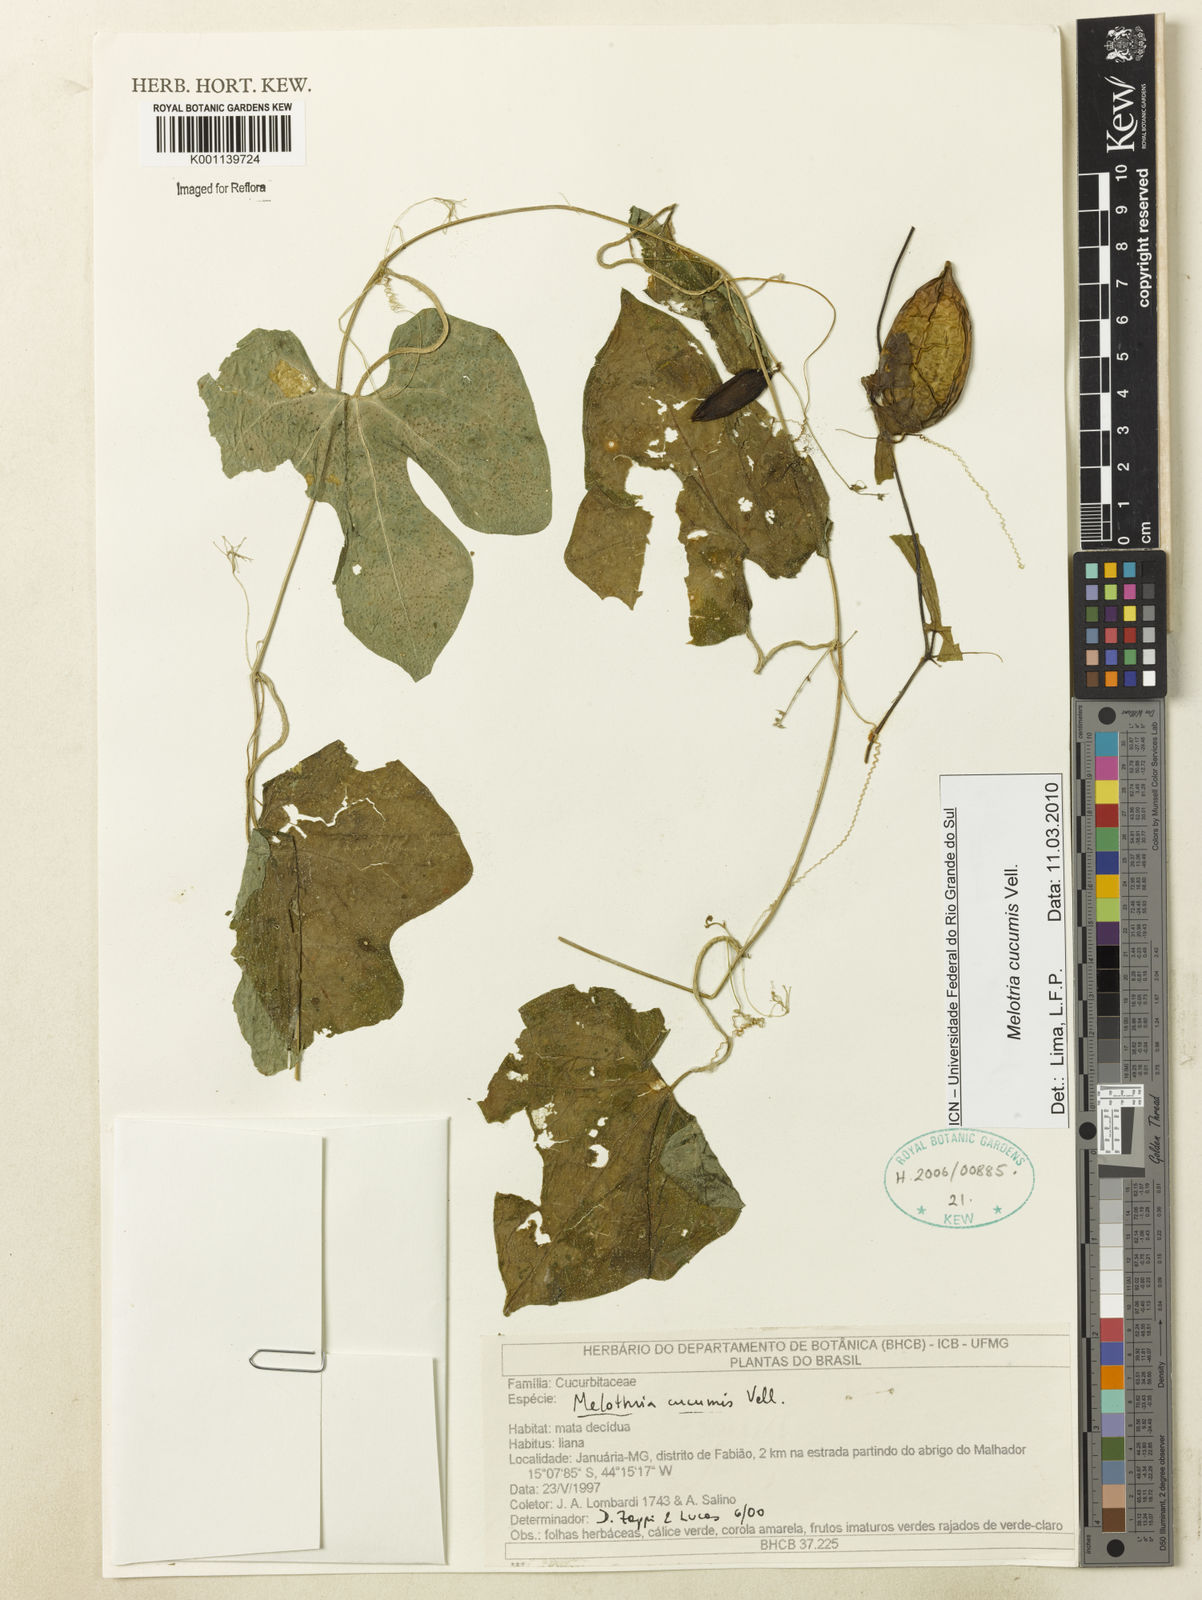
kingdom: Plantae
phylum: Tracheophyta
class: Magnoliopsida
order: Cucurbitales
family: Cucurbitaceae
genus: Melothria
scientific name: Melothria cucumis
